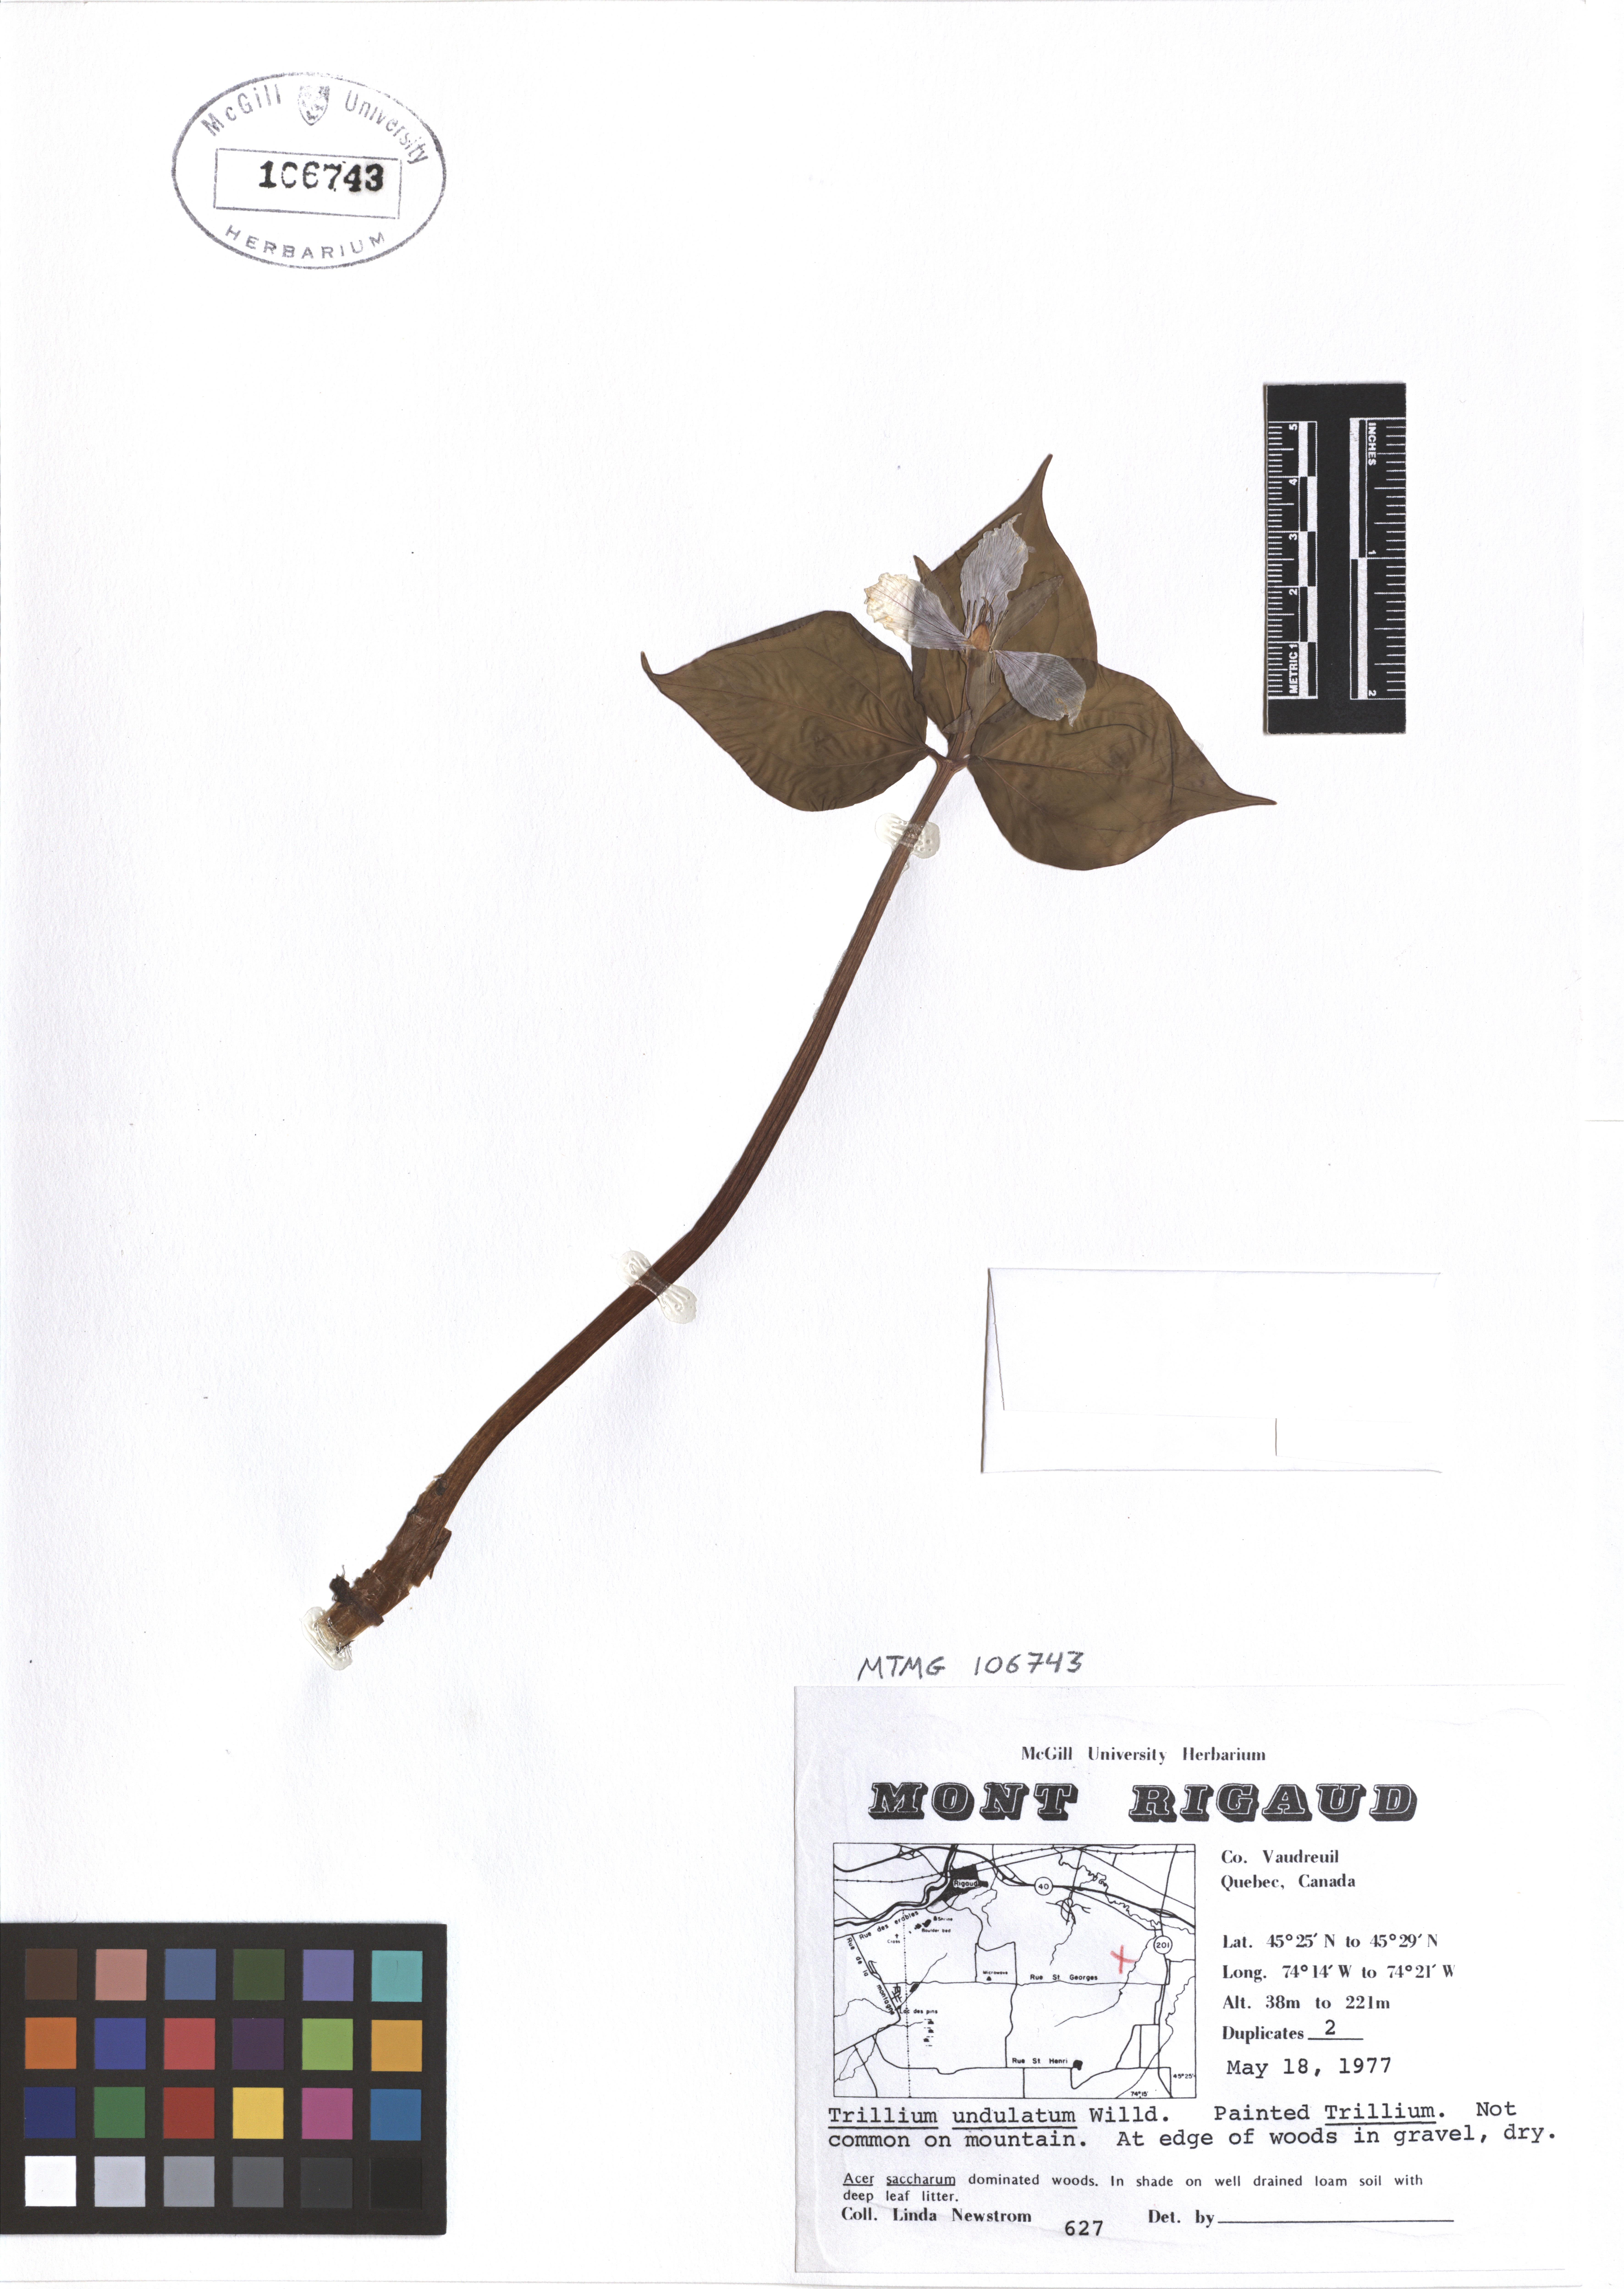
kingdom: Plantae
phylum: Tracheophyta
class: Liliopsida
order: Liliales
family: Melanthiaceae
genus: Trillium
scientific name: Trillium undulatum
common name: Paint trillium
